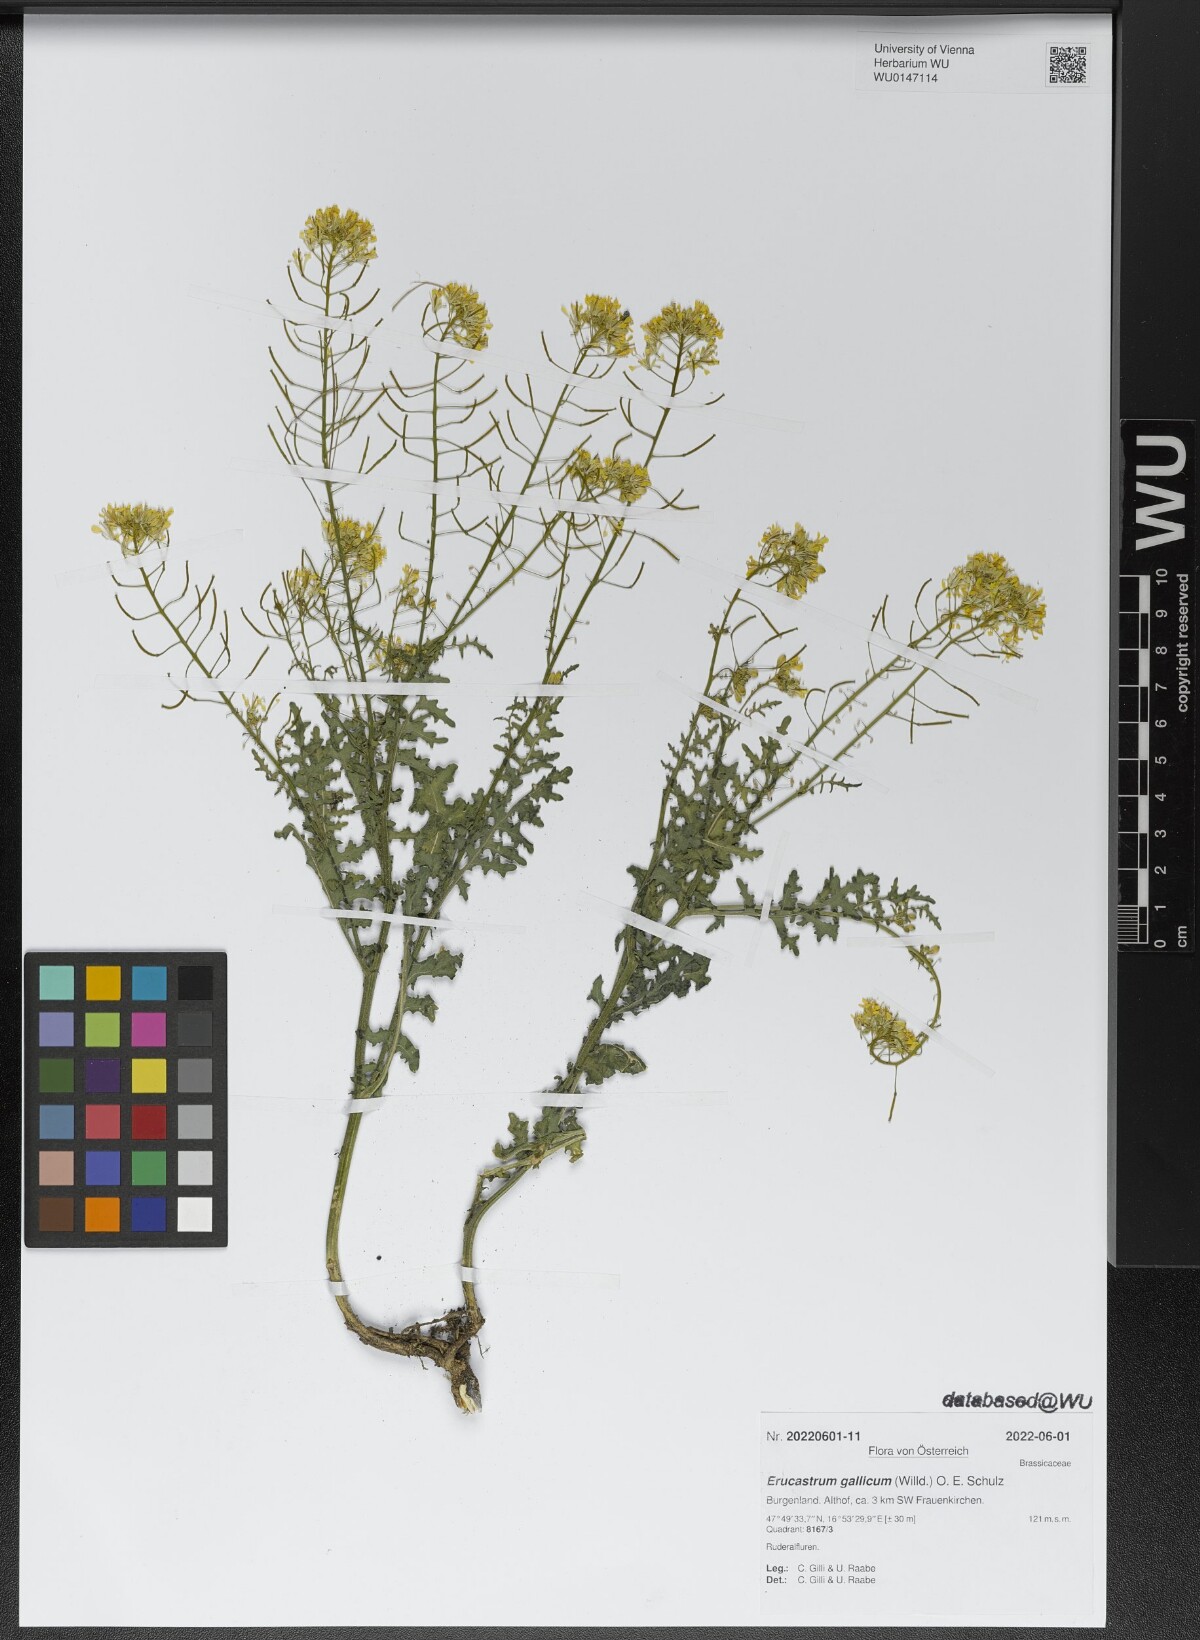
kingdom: Plantae
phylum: Tracheophyta
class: Magnoliopsida
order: Brassicales
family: Brassicaceae
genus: Erucastrum
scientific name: Erucastrum gallicum
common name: Hairy rocket
